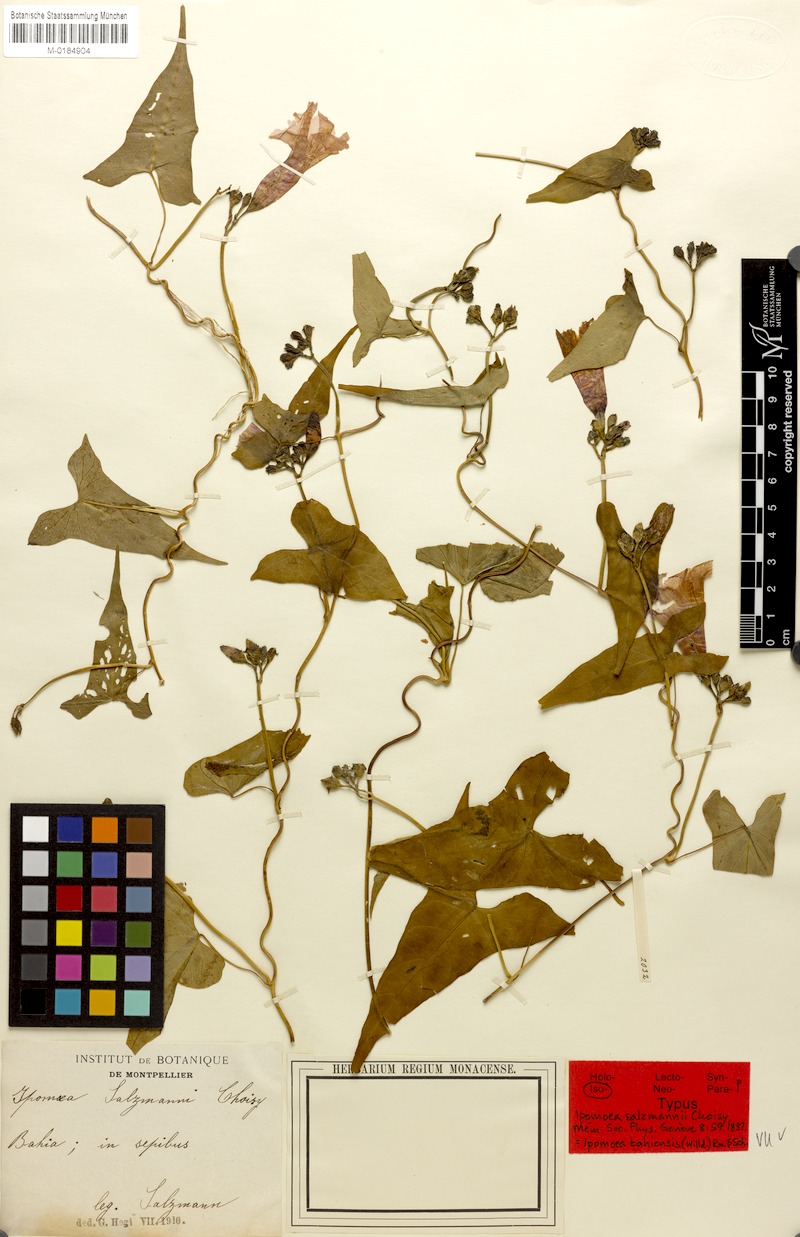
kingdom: Plantae
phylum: Tracheophyta
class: Magnoliopsida
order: Solanales
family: Convolvulaceae
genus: Ipomoea
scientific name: Ipomoea bahiensis
